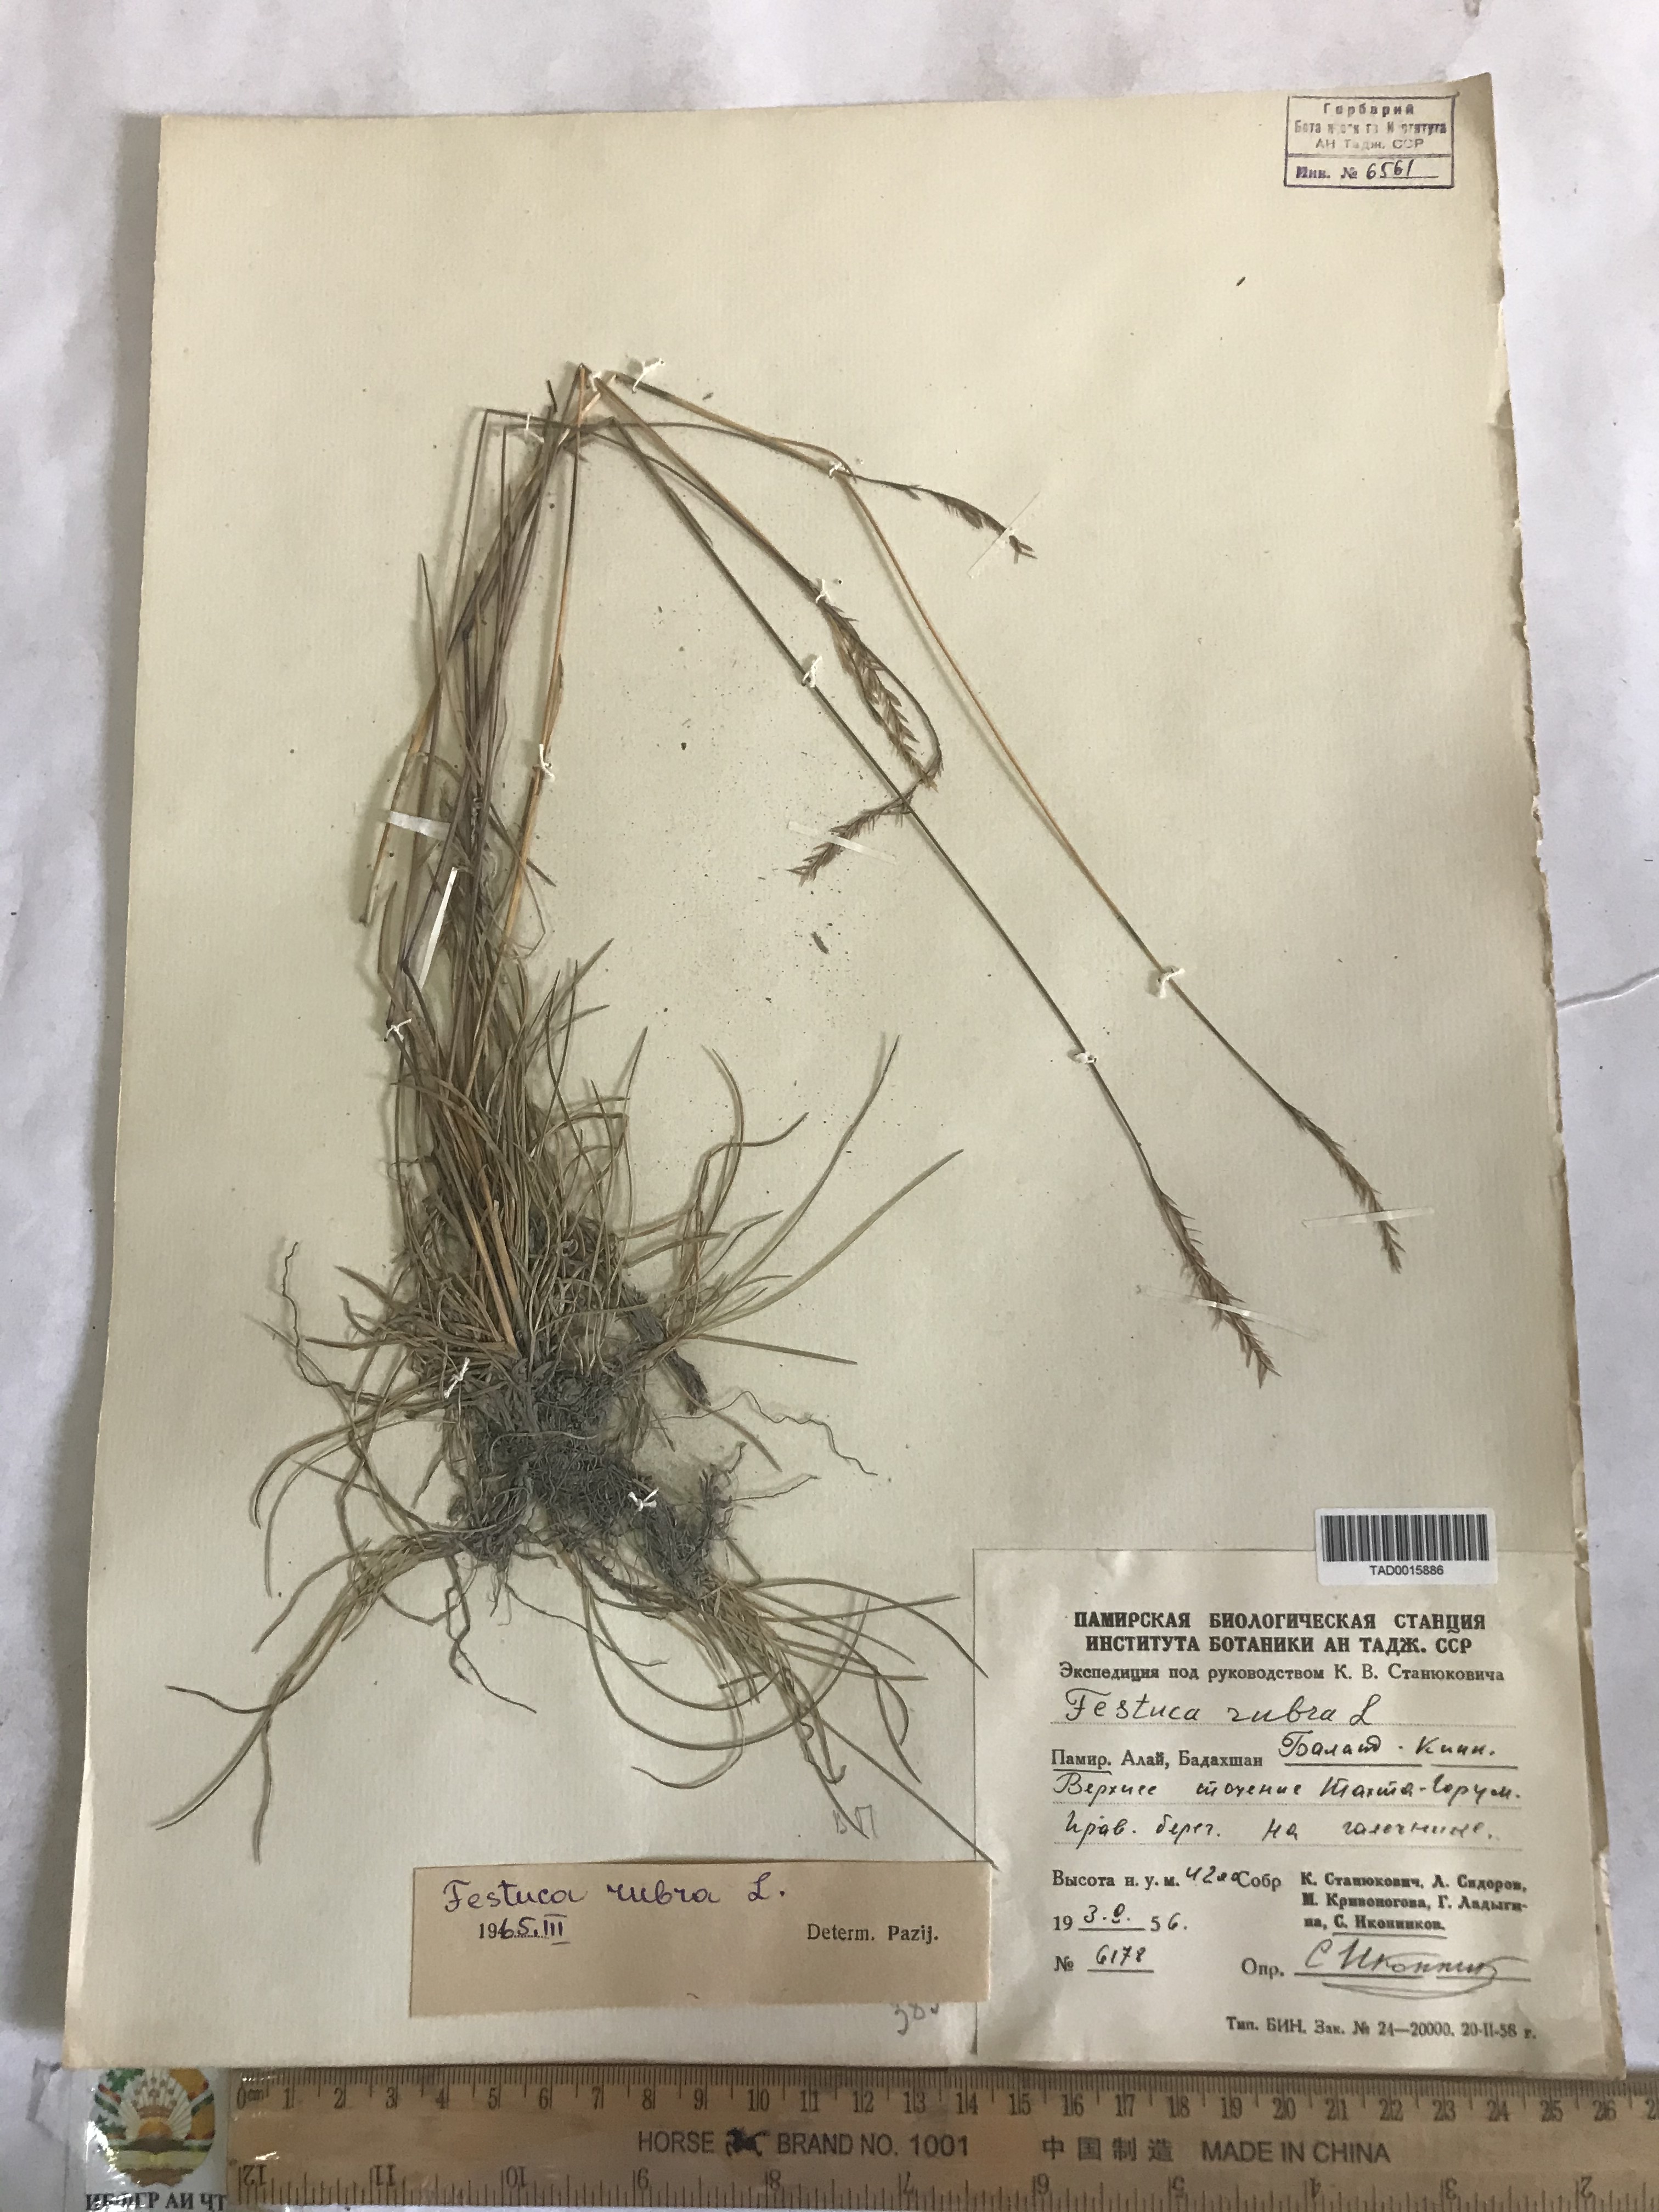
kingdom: Plantae
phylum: Tracheophyta
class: Liliopsida
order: Poales
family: Poaceae
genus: Festuca
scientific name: Festuca rubra
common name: Red fescue
